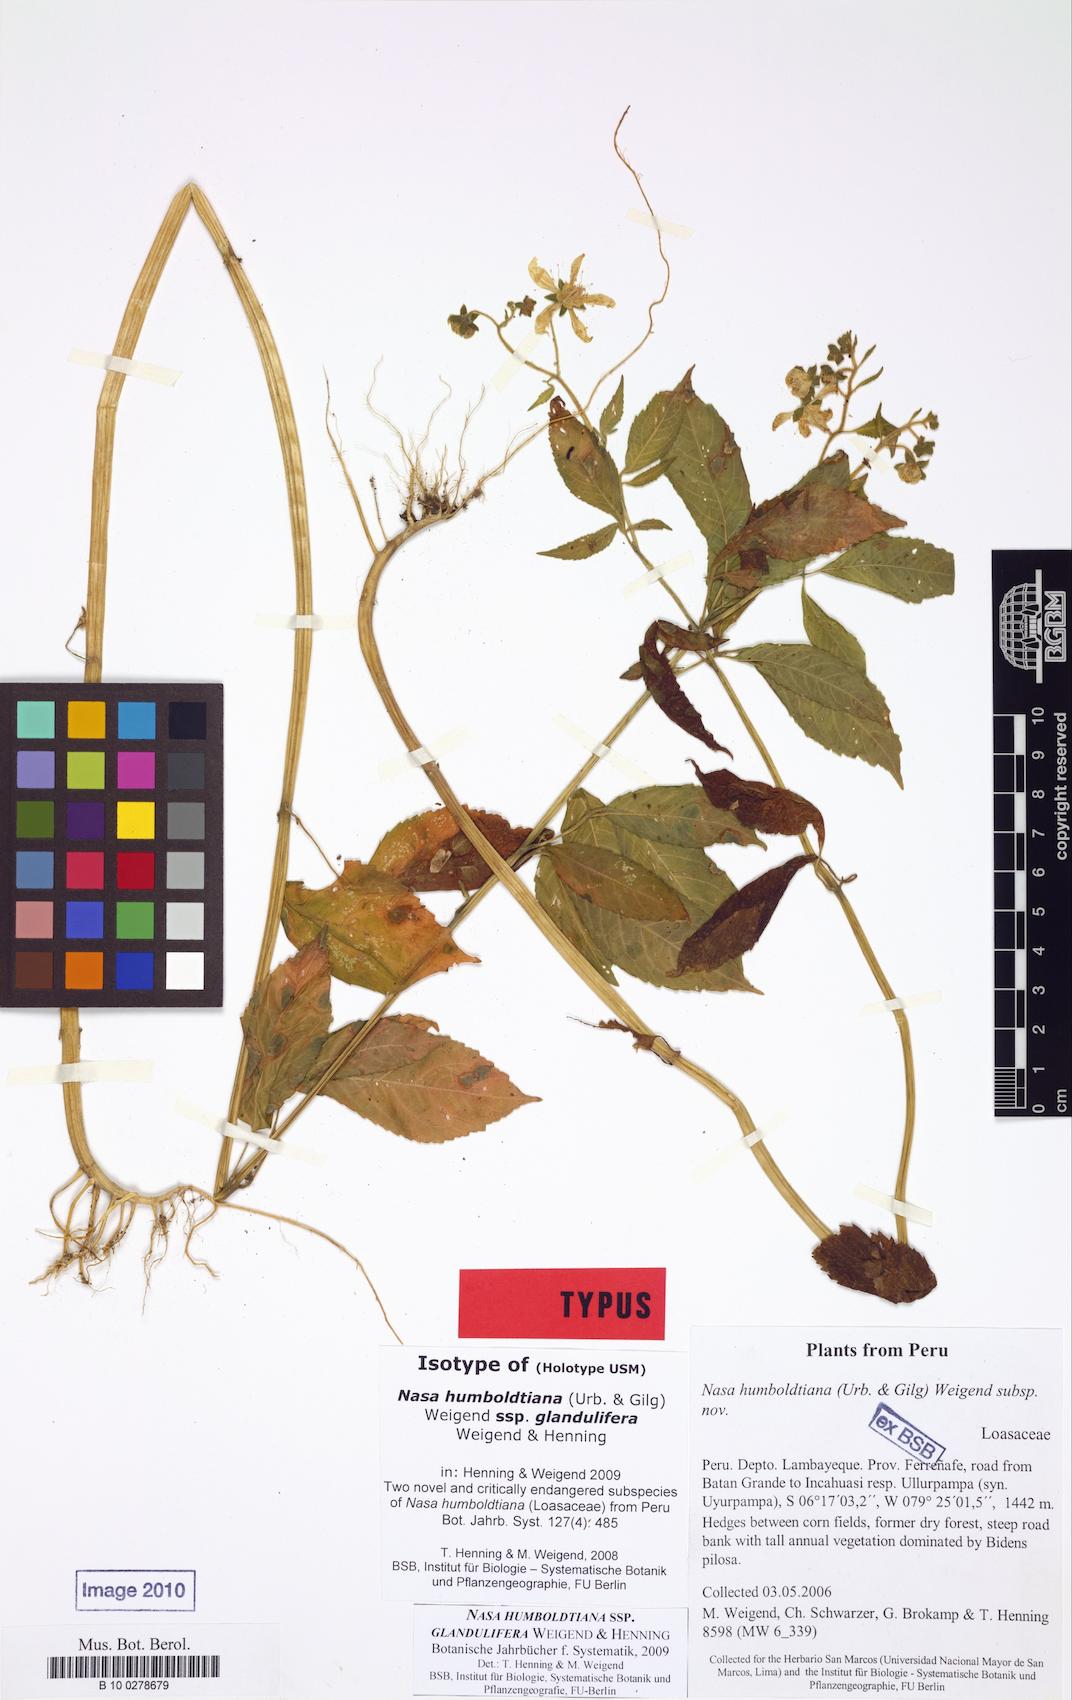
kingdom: Plantae
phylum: Tracheophyta
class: Magnoliopsida
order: Cornales
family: Loasaceae
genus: Nasa
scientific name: Nasa humboldtiana
